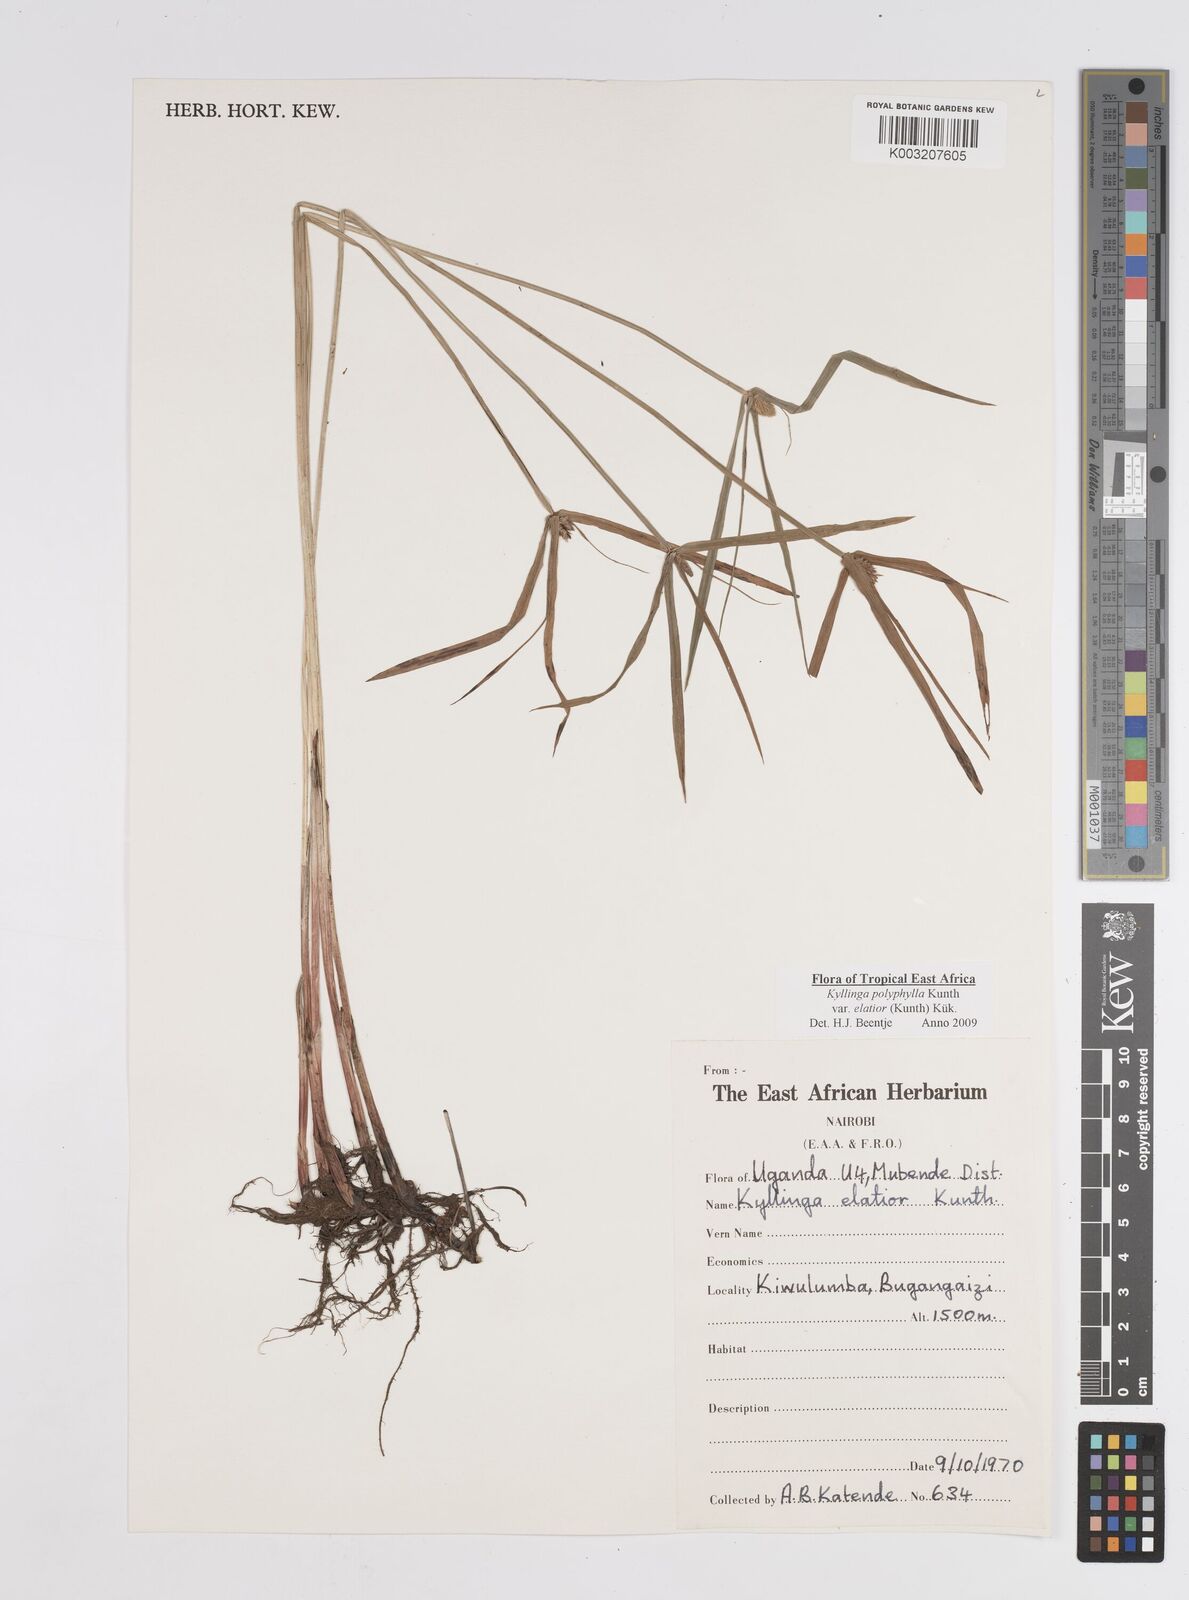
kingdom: Plantae
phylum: Tracheophyta
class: Liliopsida
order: Poales
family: Cyperaceae
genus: Cyperus
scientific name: Cyperus
